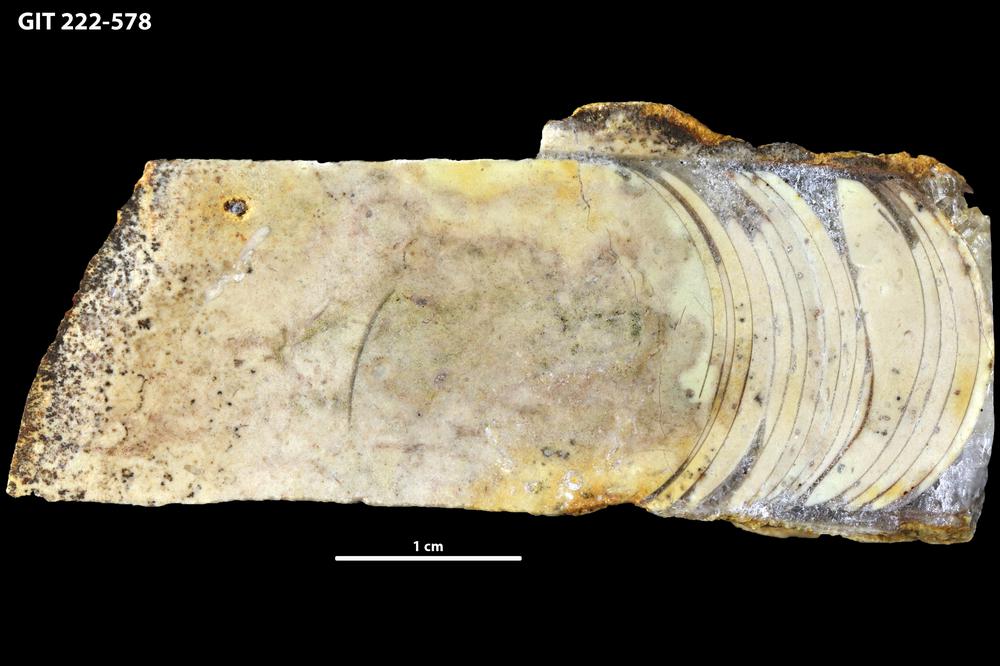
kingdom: Animalia
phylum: Mollusca
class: Cephalopoda
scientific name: Cephalopoda
